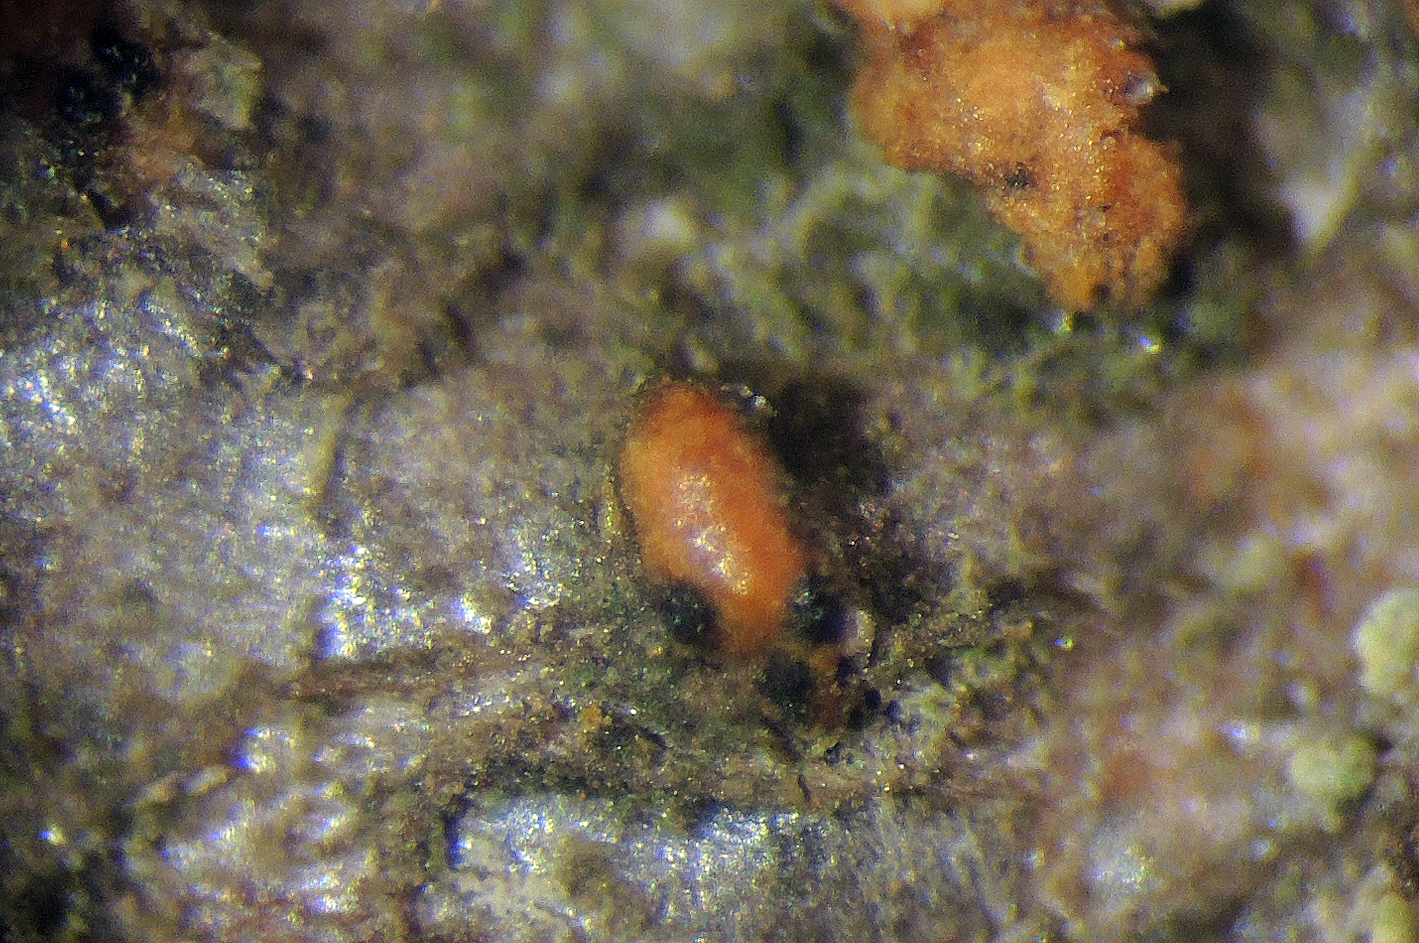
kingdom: Fungi
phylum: Ascomycota
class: Sordariomycetes
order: Diaporthales
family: Melanconidaceae
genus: Wuestneia
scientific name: Wuestneia chrysostroma
